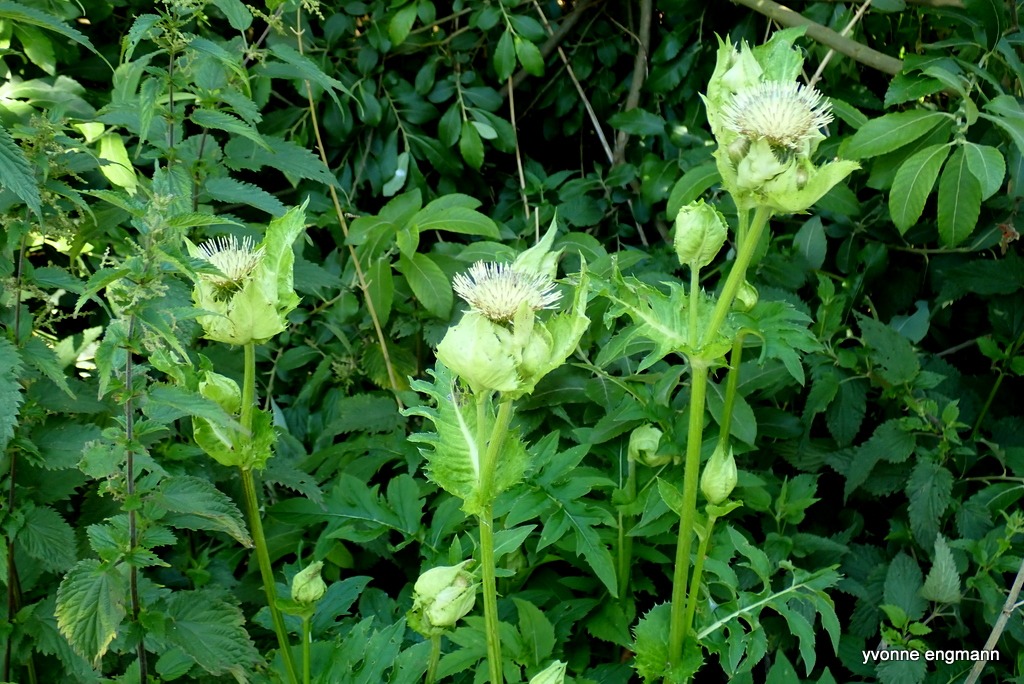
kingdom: Plantae
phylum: Tracheophyta
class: Magnoliopsida
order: Asterales
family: Asteraceae
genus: Cirsium
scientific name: Cirsium oleraceum
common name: Kål-tidsel
